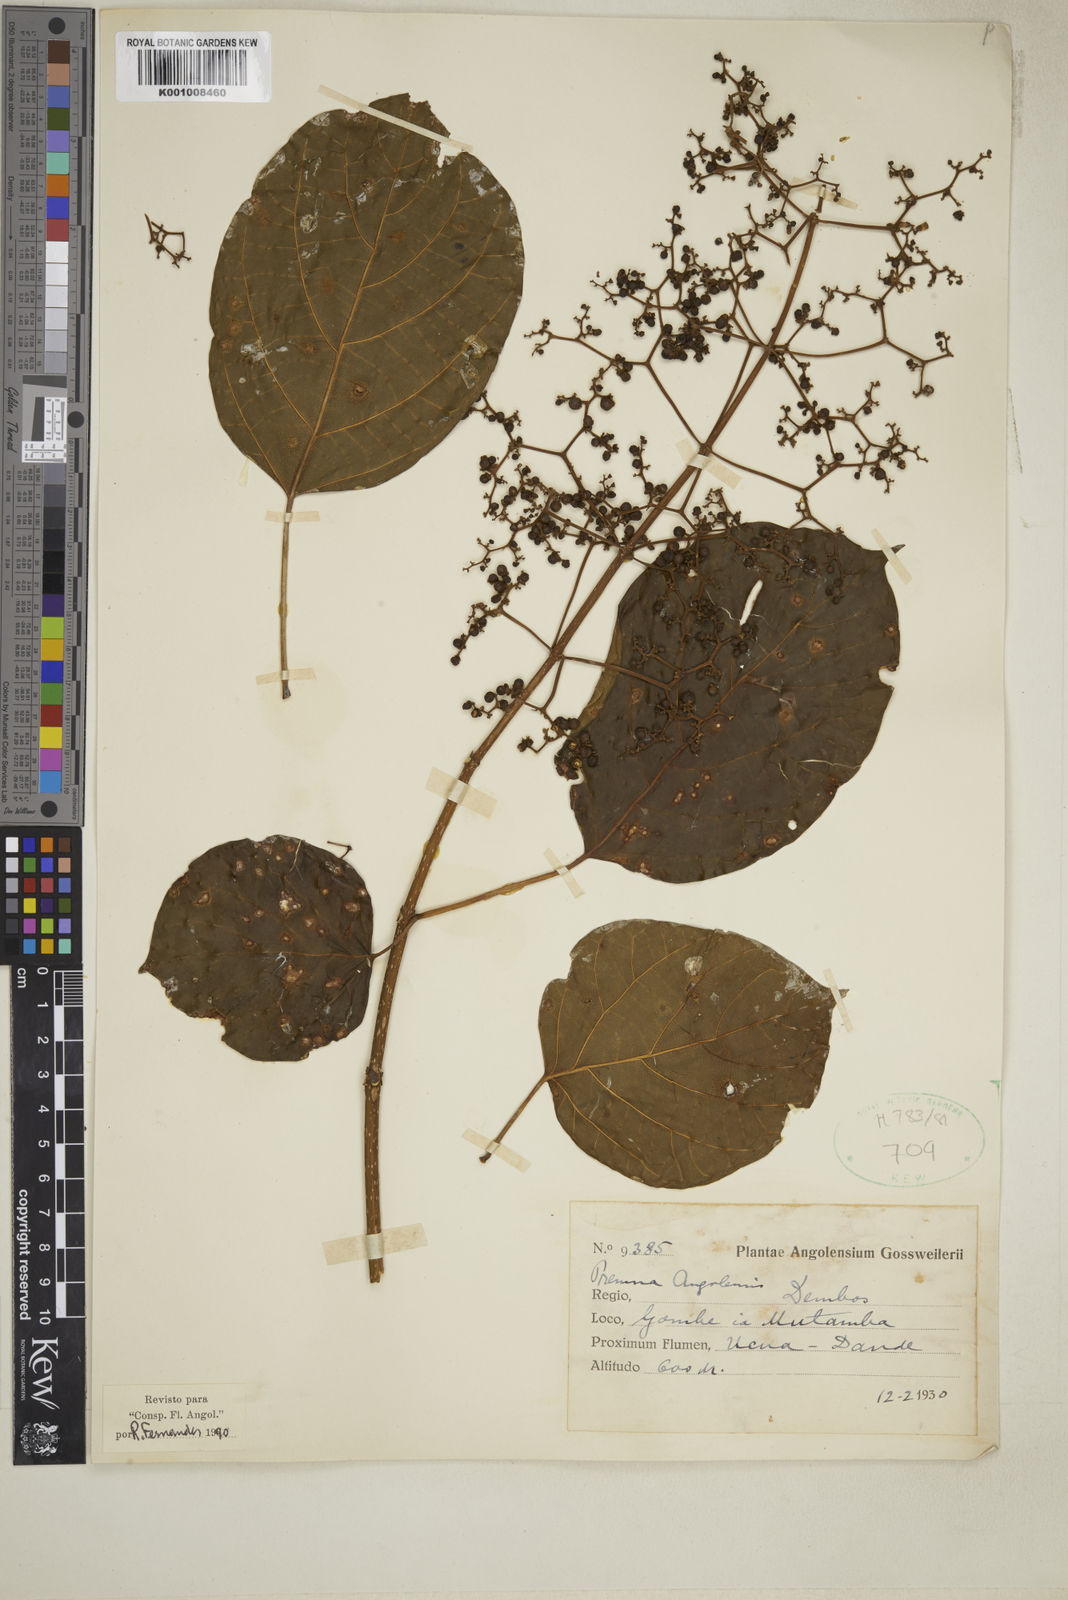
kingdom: Plantae
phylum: Tracheophyta
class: Magnoliopsida
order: Lamiales
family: Lamiaceae
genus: Premna
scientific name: Premna
